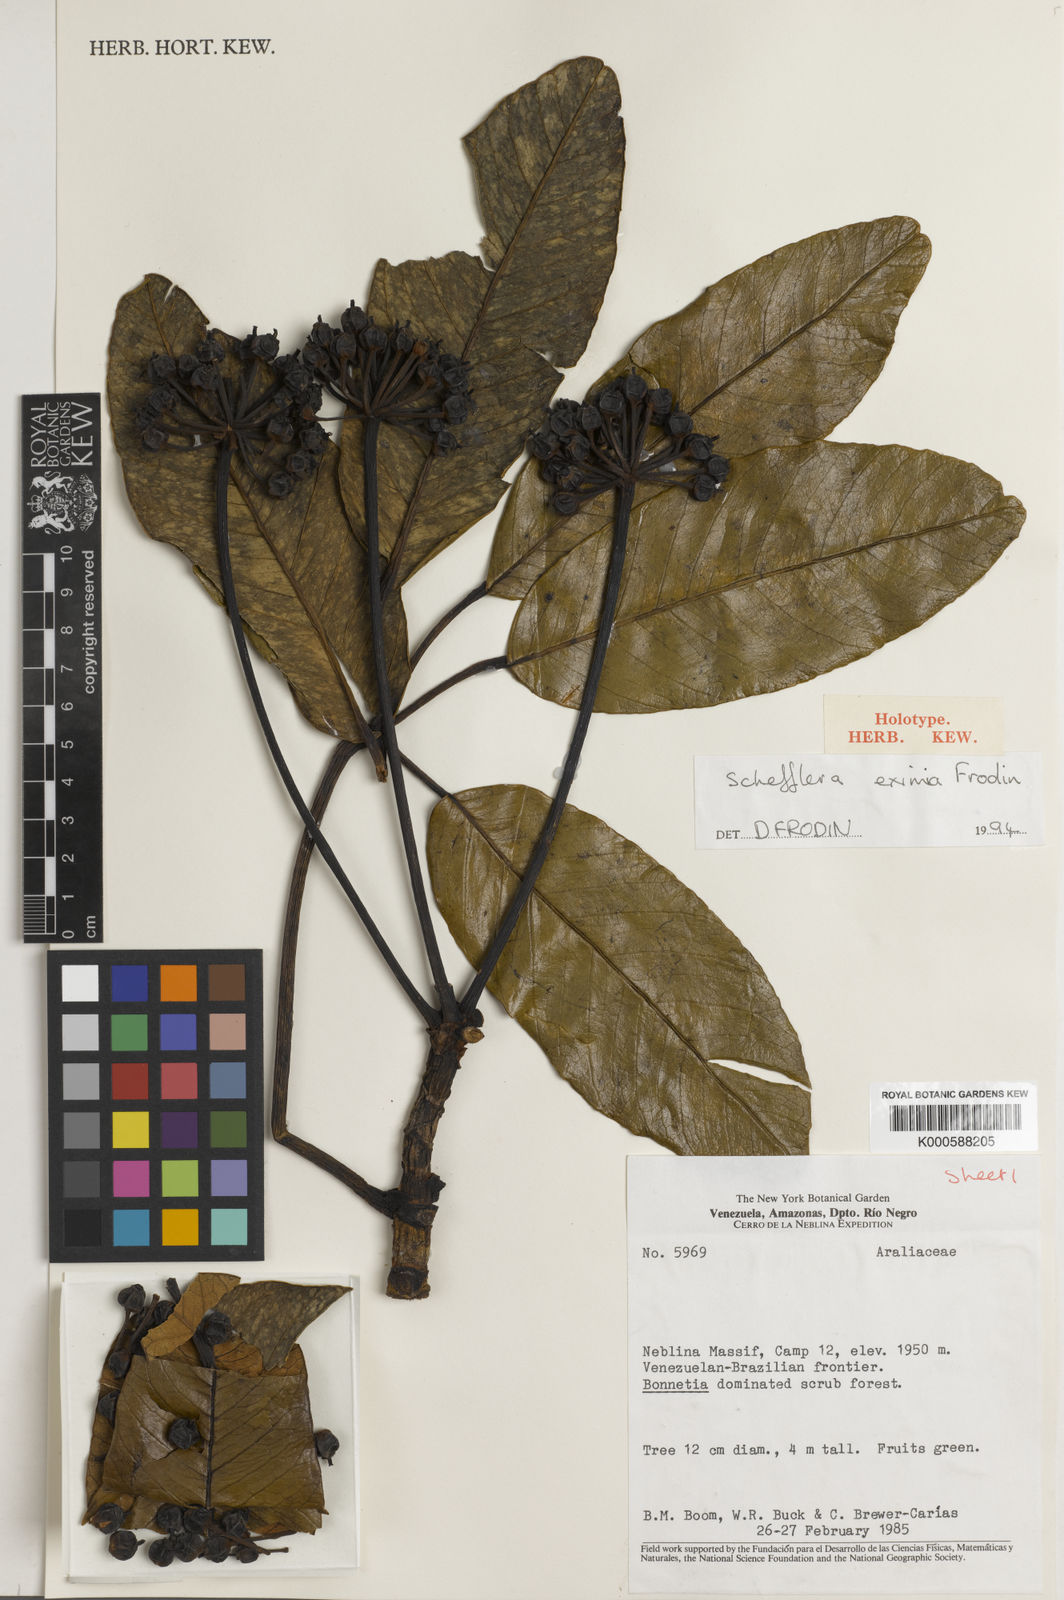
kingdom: Plantae
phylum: Tracheophyta
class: Magnoliopsida
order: Apiales
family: Araliaceae
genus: Crepinella
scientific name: Crepinella
